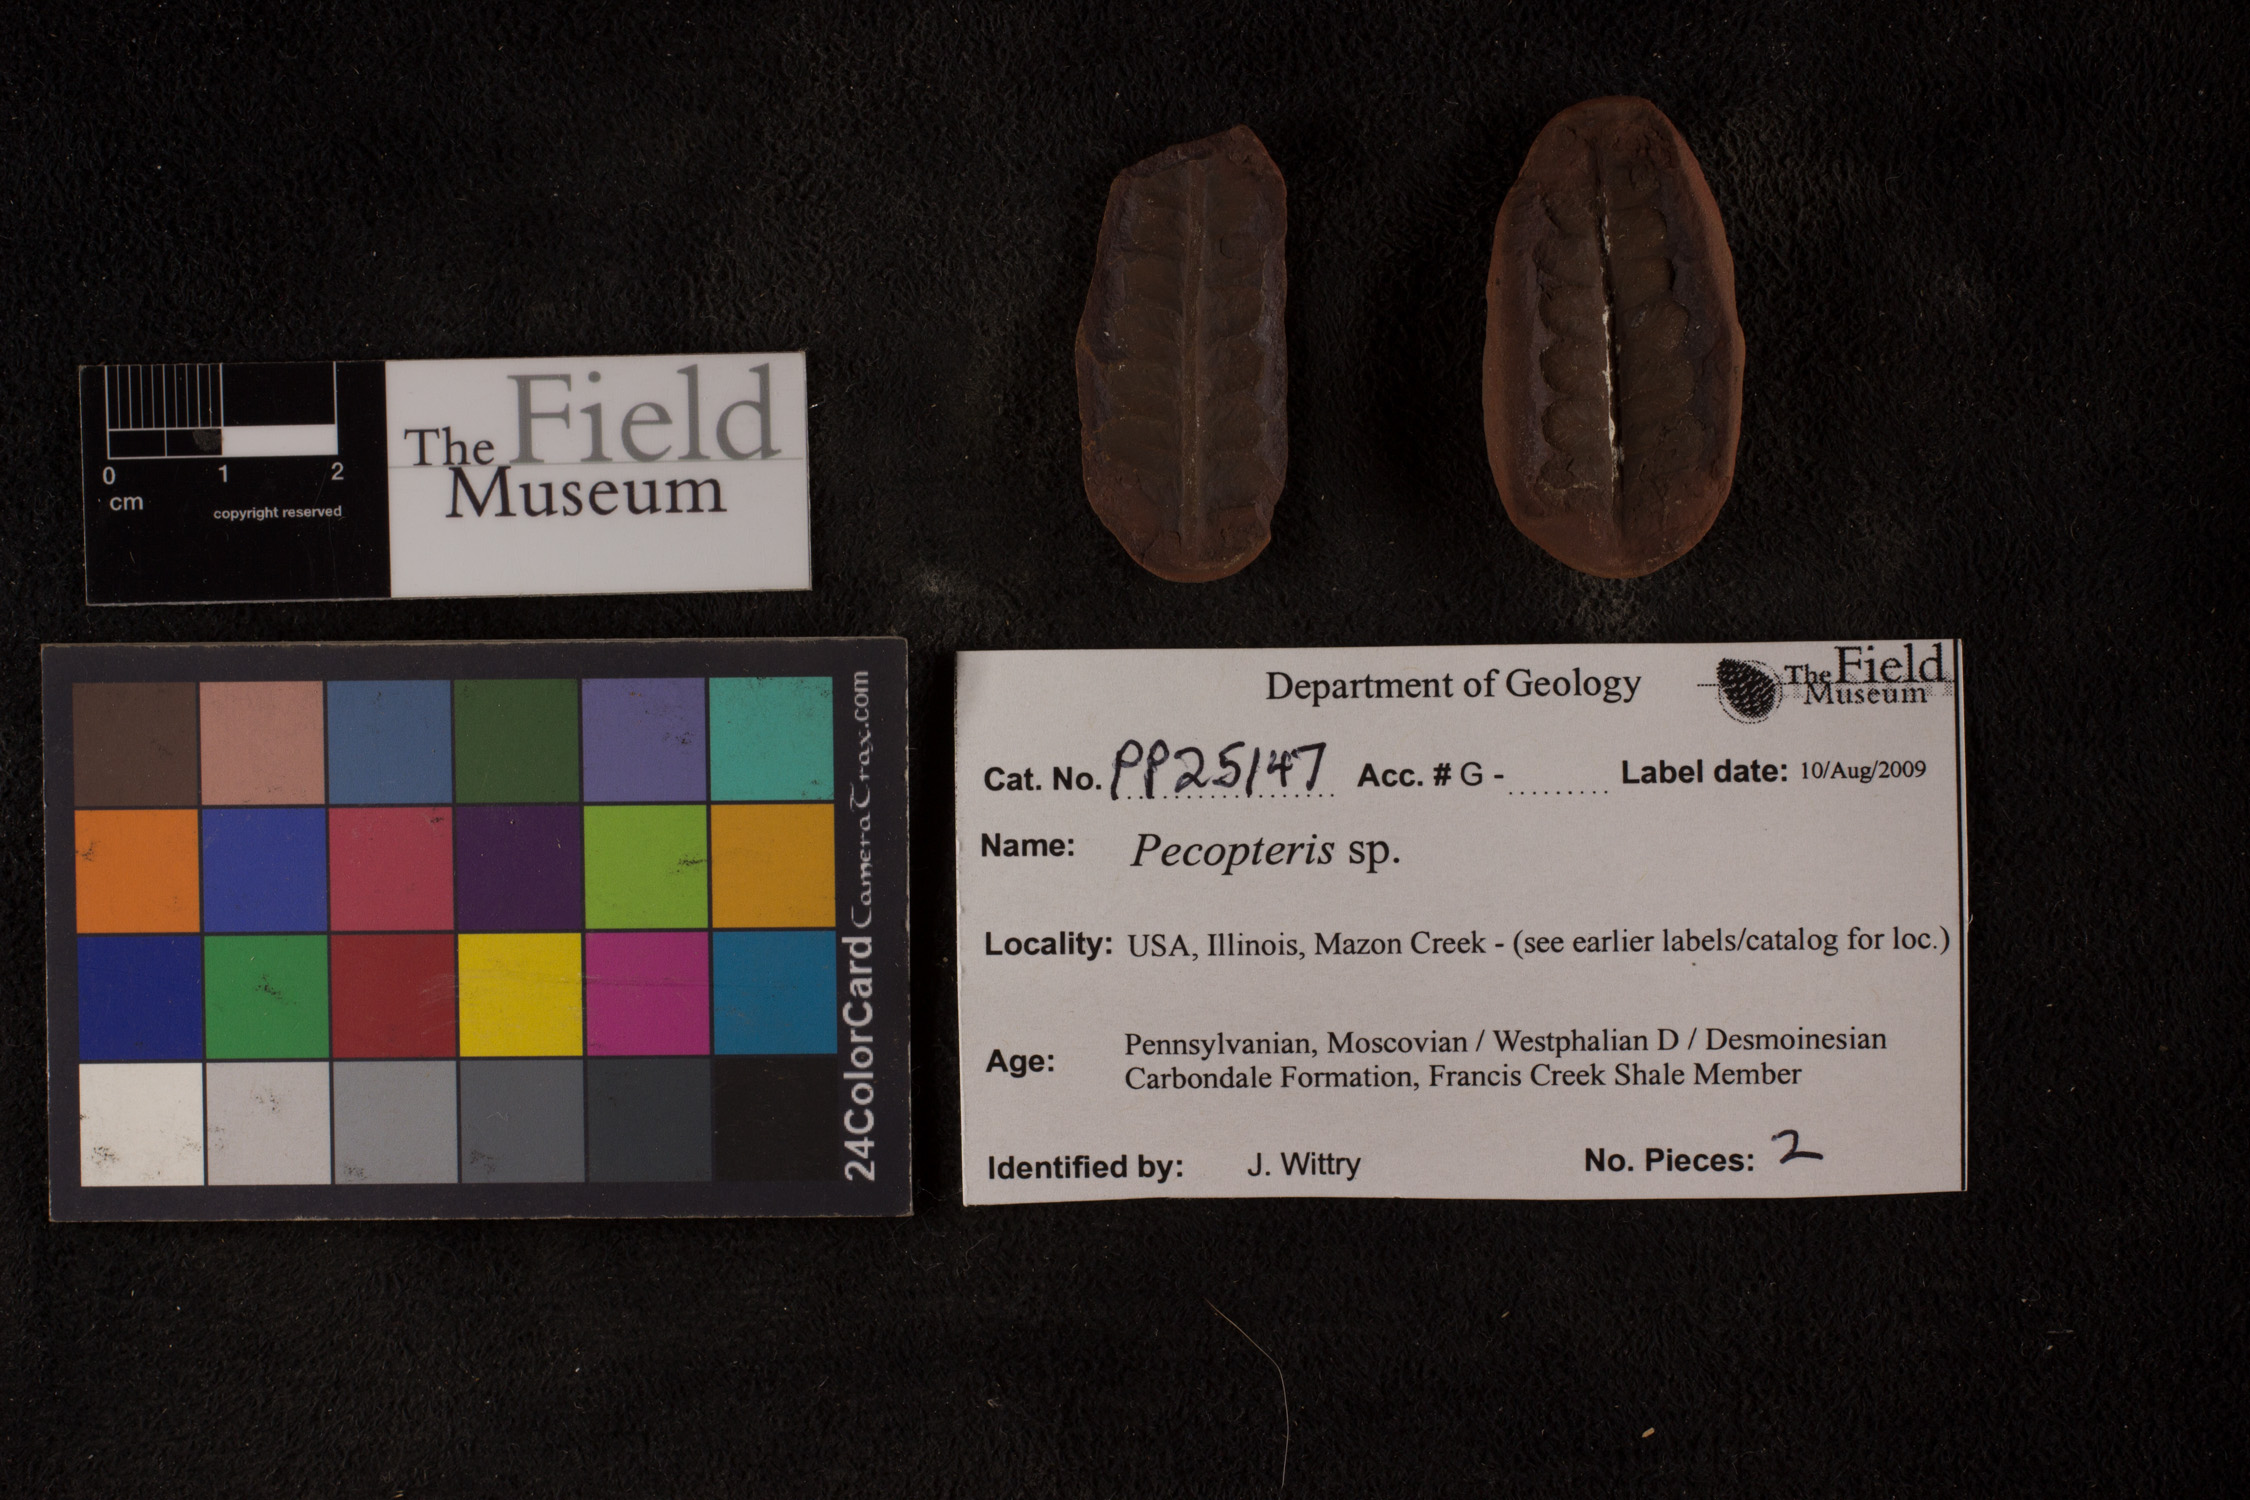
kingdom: Plantae
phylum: Tracheophyta
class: Polypodiopsida
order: Marattiales
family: Asterothecaceae
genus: Pecopteris
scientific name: Pecopteris
